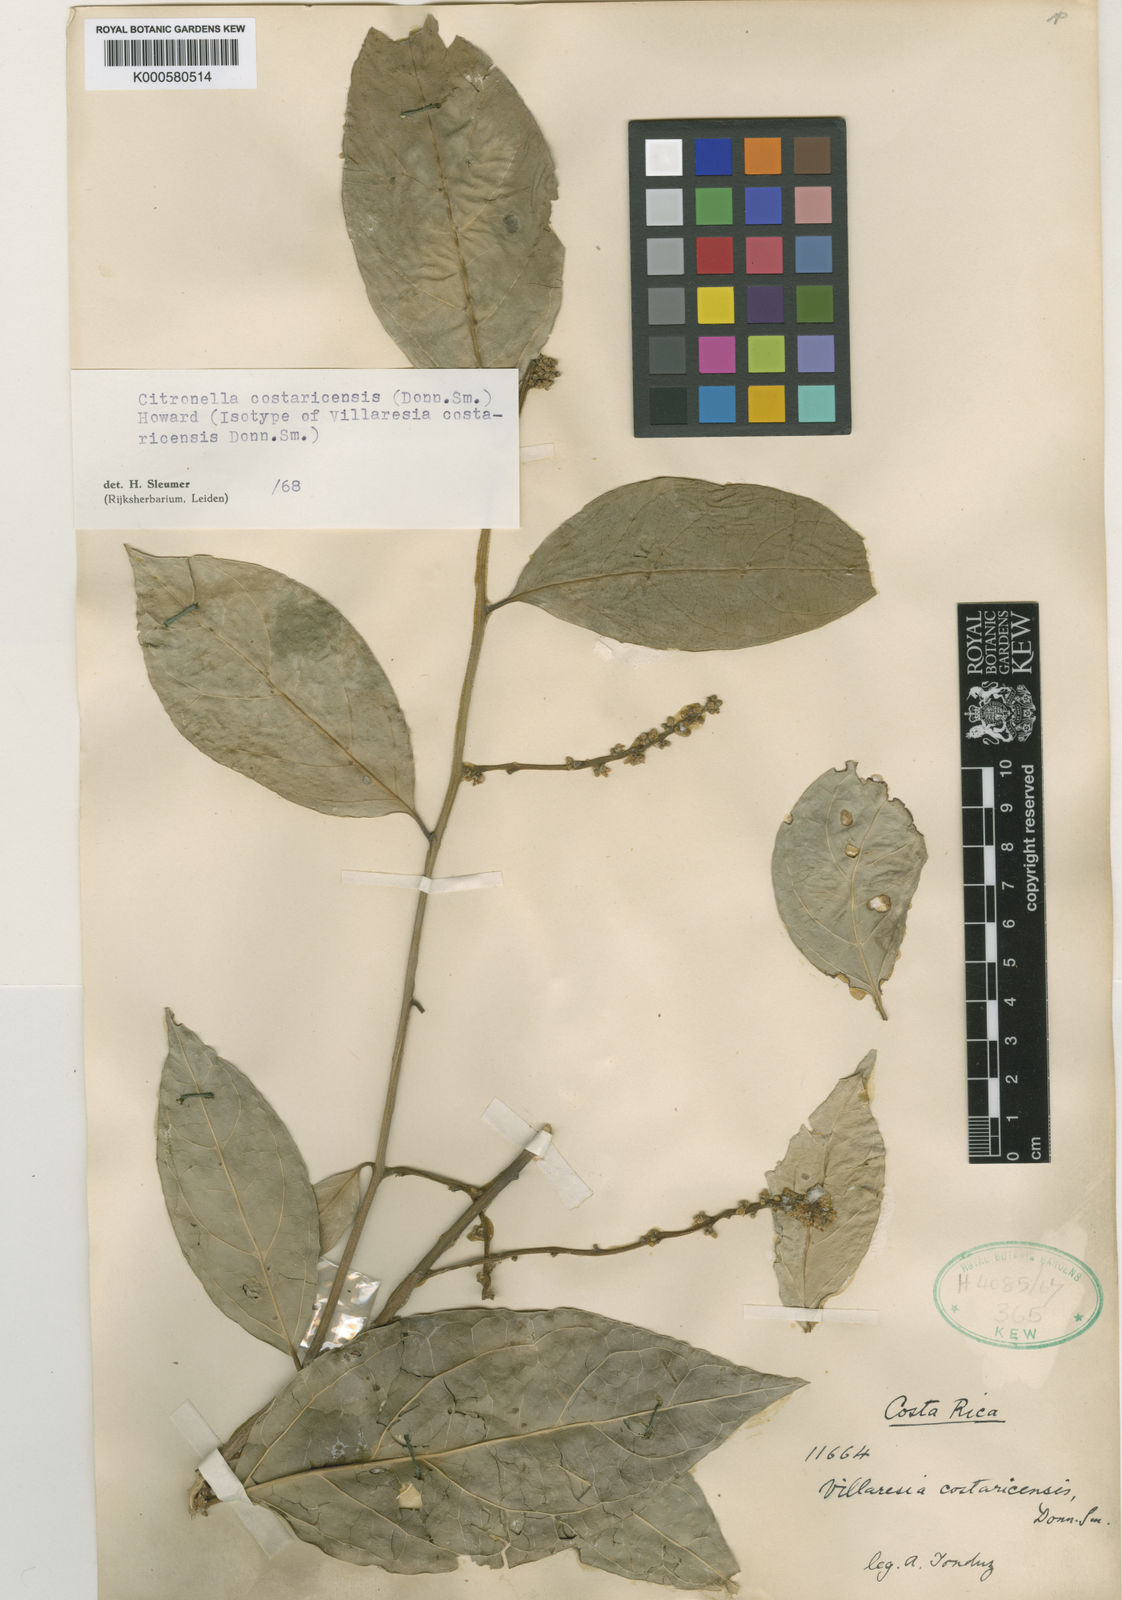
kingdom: Plantae
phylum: Tracheophyta
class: Magnoliopsida
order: Cardiopteridales
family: Cardiopteridaceae
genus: Citronella
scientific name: Citronella costaricensis
